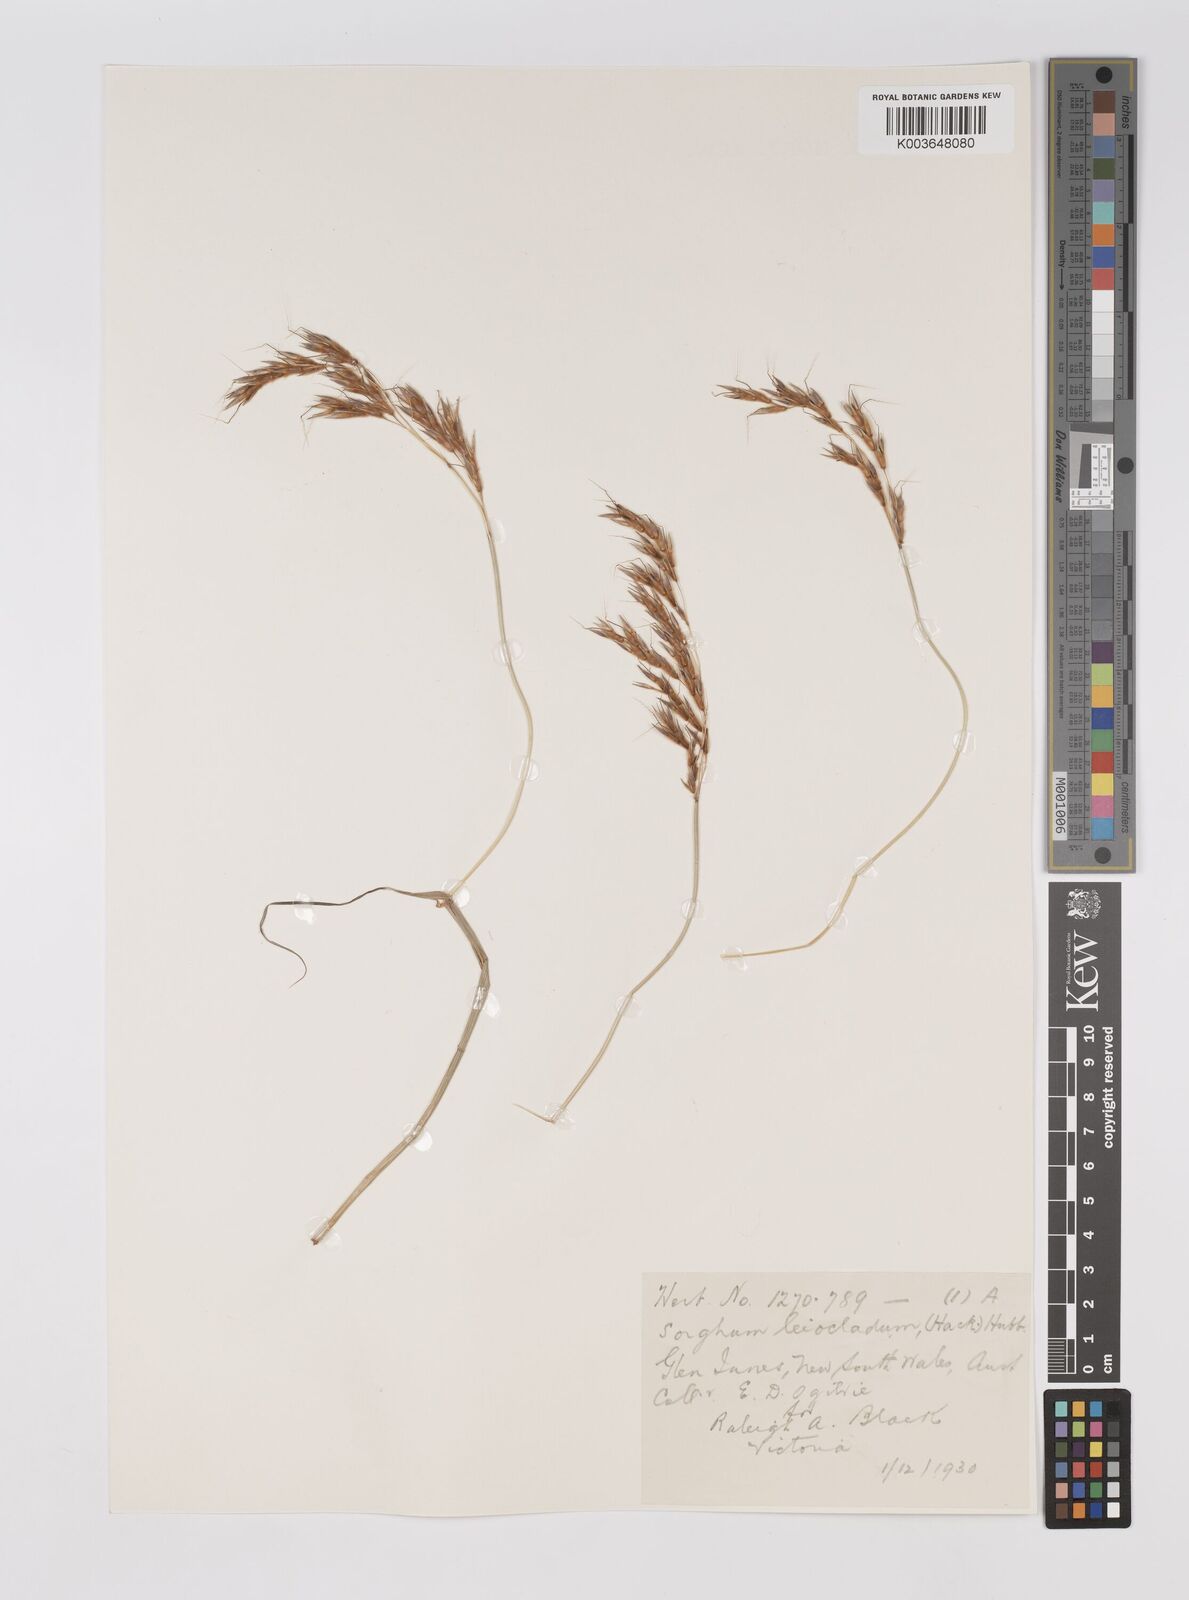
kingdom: Plantae
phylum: Tracheophyta
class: Liliopsida
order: Poales
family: Poaceae
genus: Sarga
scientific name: Sarga leioclada
